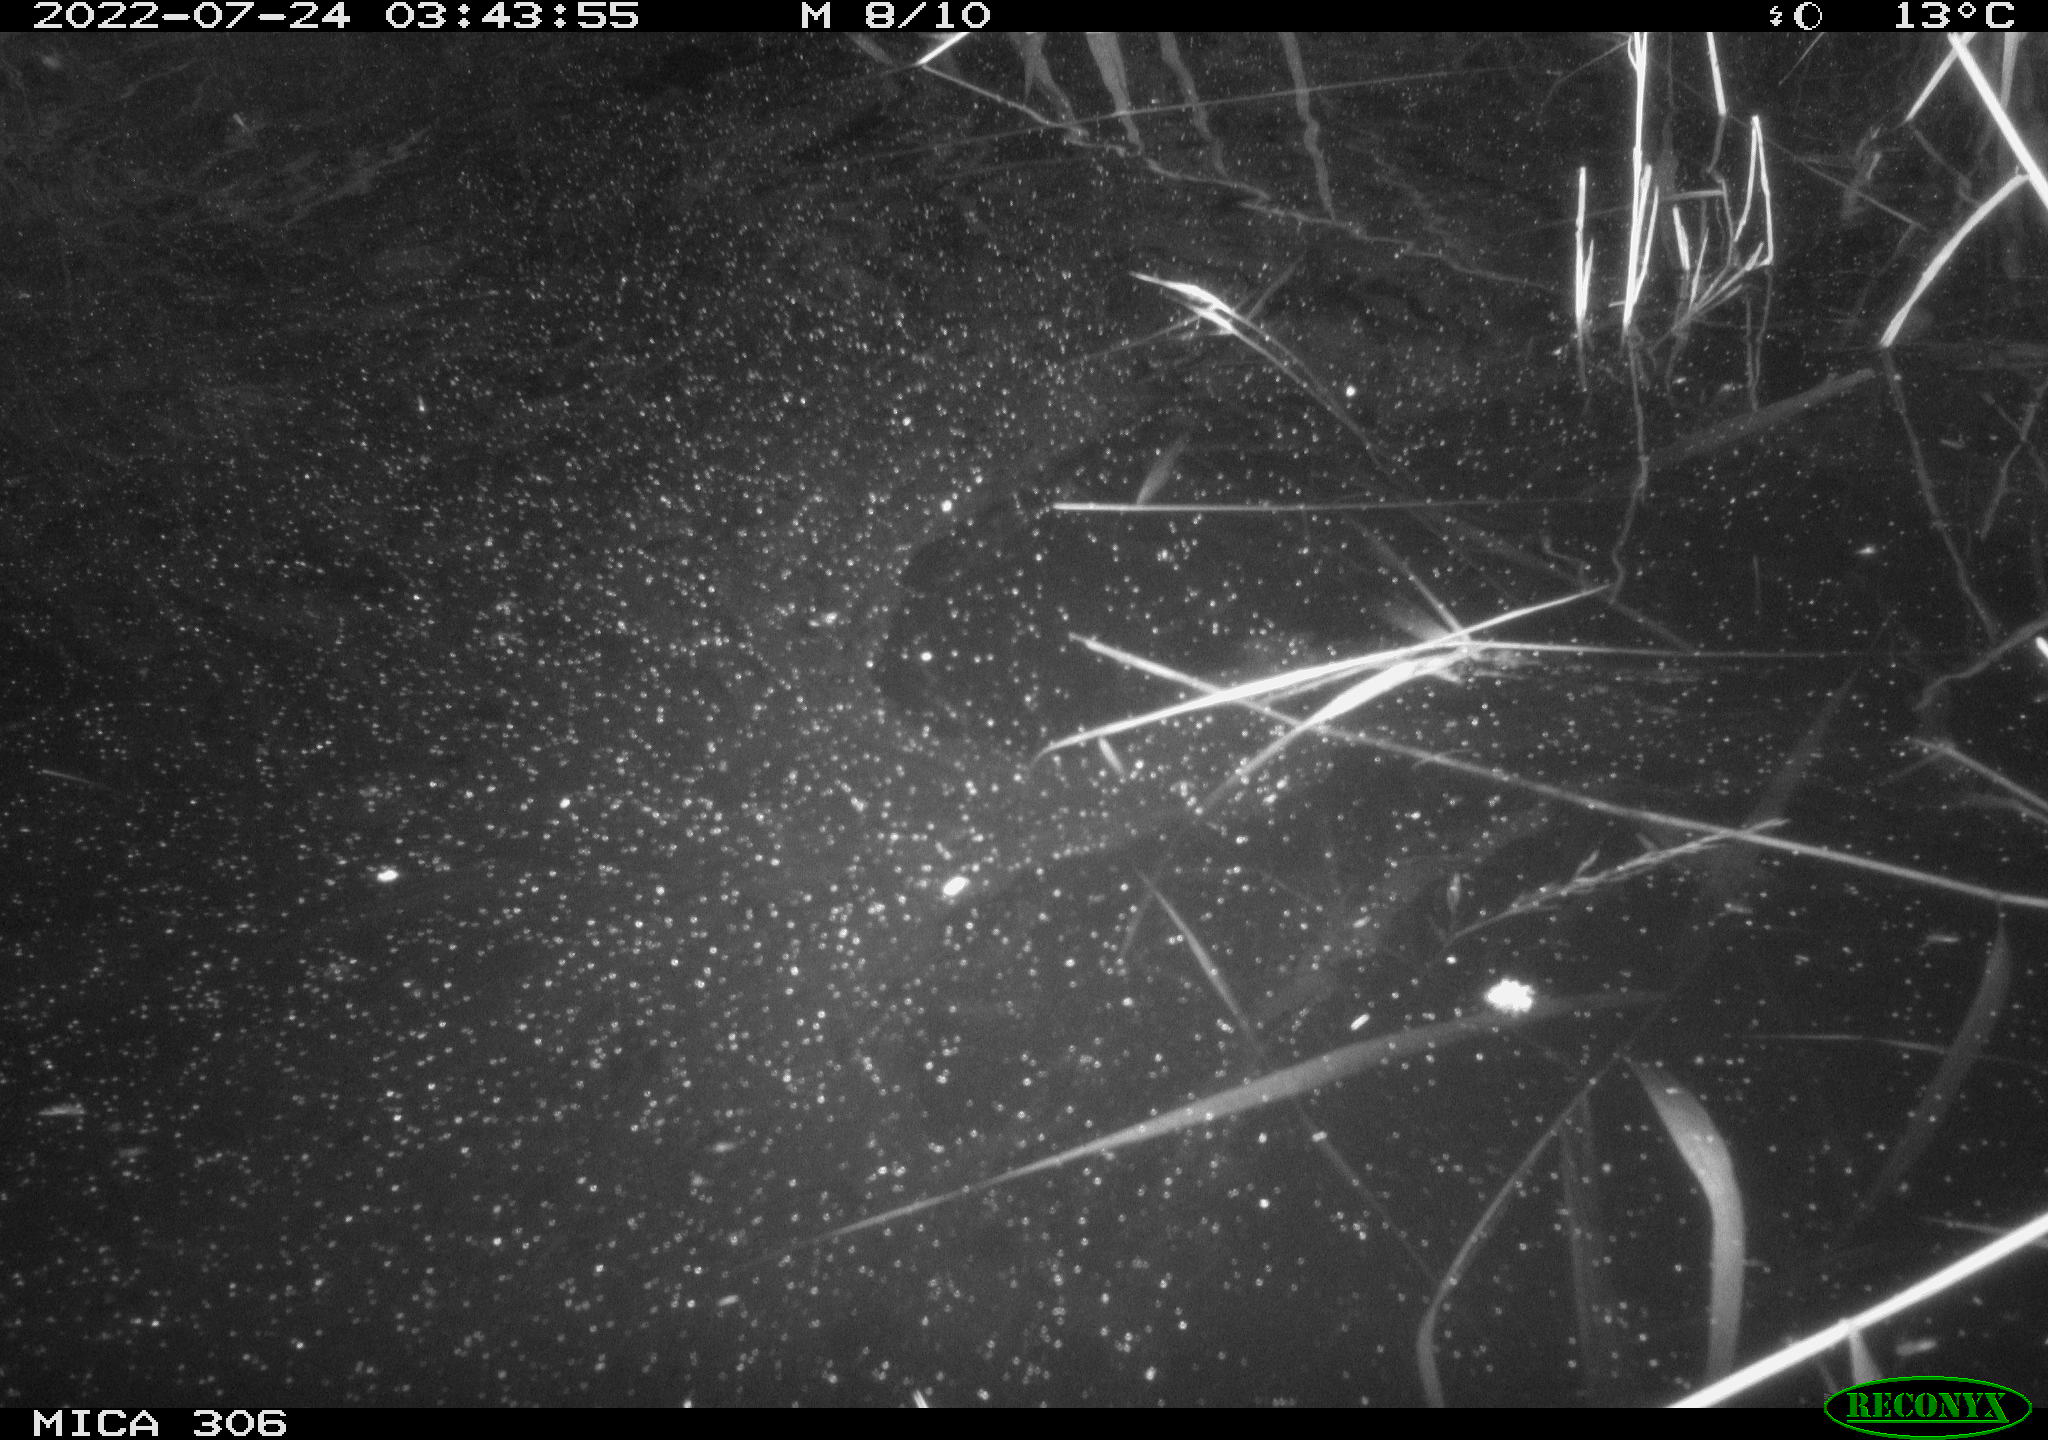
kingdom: Animalia
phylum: Chordata
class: Mammalia
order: Rodentia
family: Muridae
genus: Rattus
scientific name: Rattus norvegicus
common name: Brown rat
